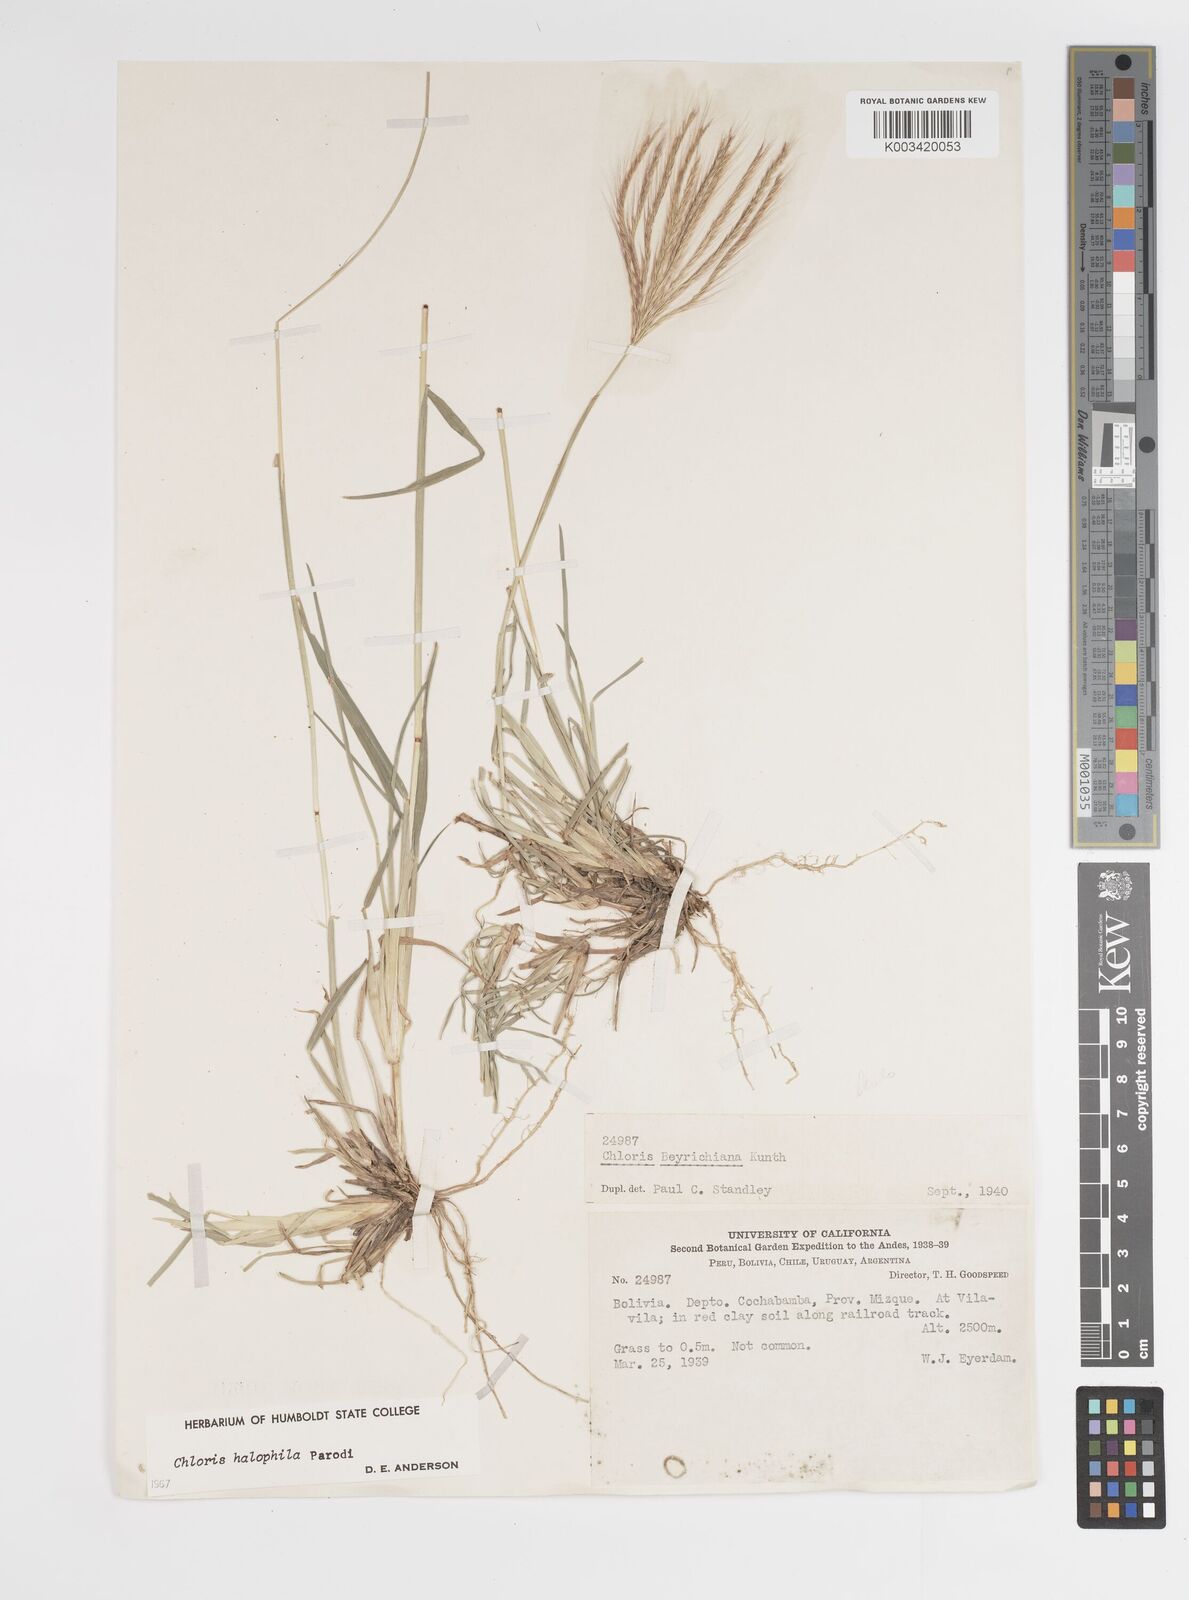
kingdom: Plantae
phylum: Tracheophyta
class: Liliopsida
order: Poales
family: Poaceae
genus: Chloris
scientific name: Chloris halophila
